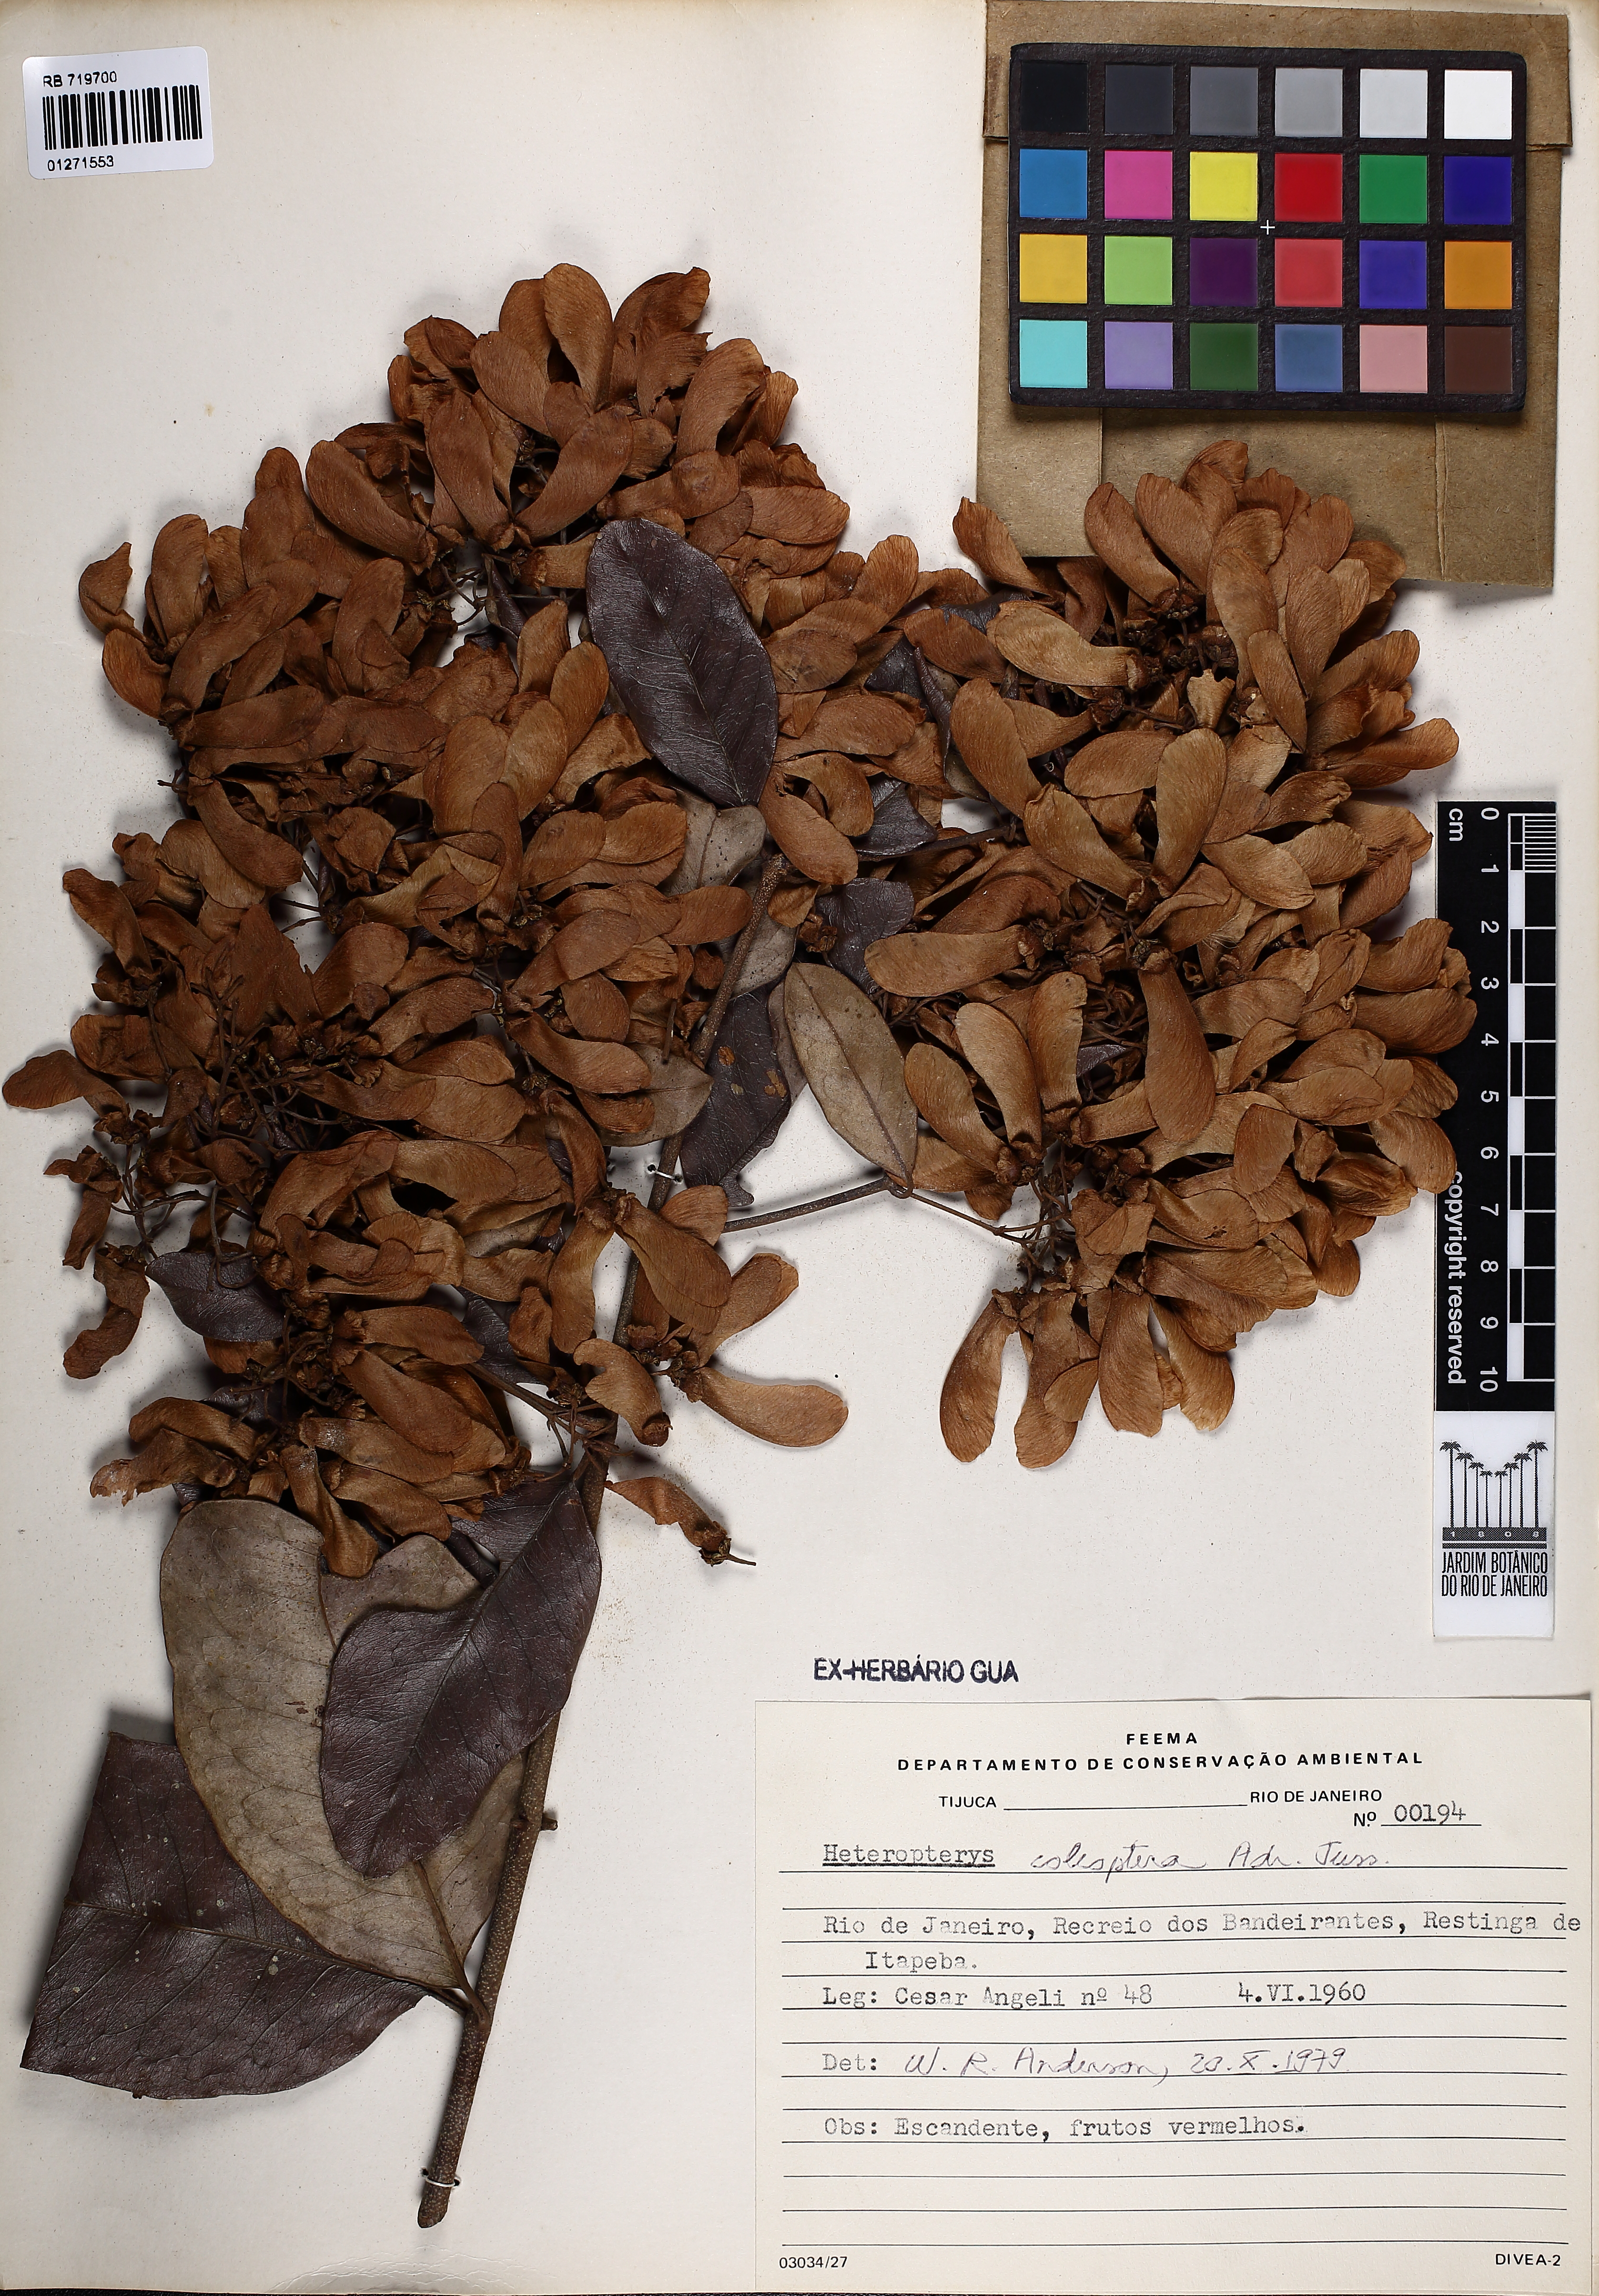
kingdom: Plantae
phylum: Tracheophyta
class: Magnoliopsida
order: Malpighiales
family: Malpighiaceae
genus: Heteropterys
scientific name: Heteropterys coleoptera
